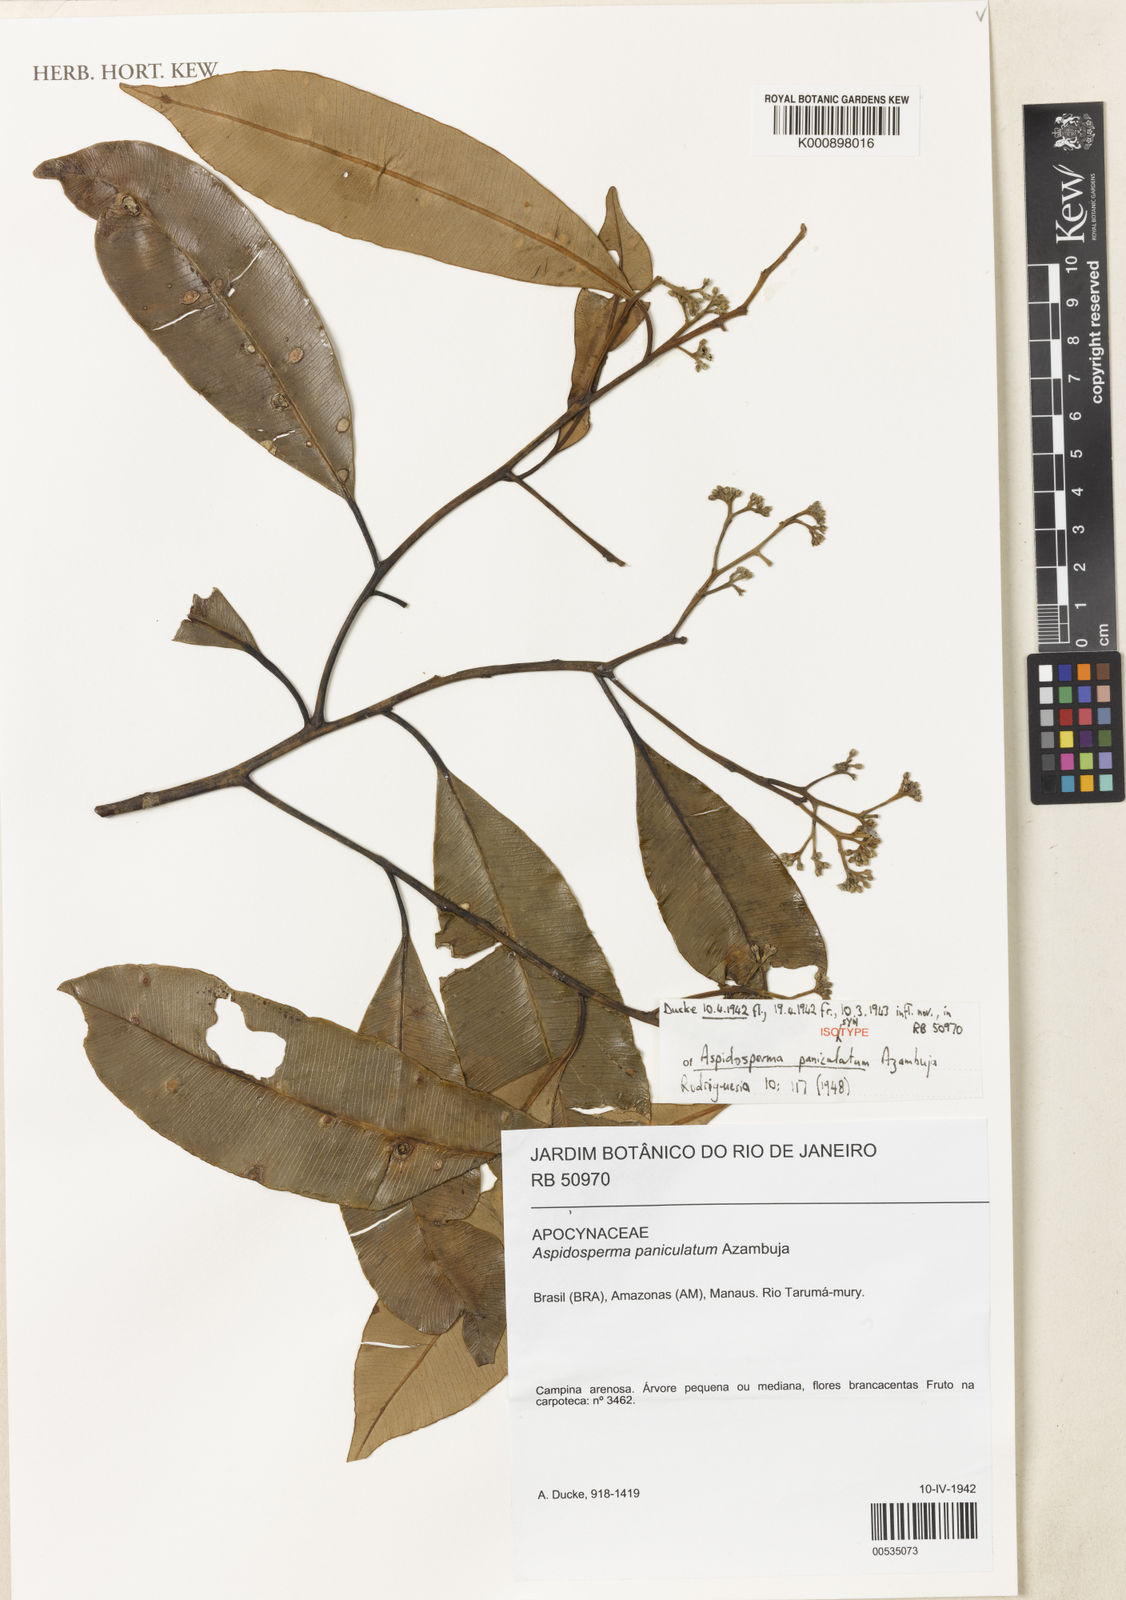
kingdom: Plantae
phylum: Tracheophyta
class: Magnoliopsida
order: Gentianales
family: Apocynaceae
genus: Aspidosperma
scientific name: Aspidosperma spruceanum
